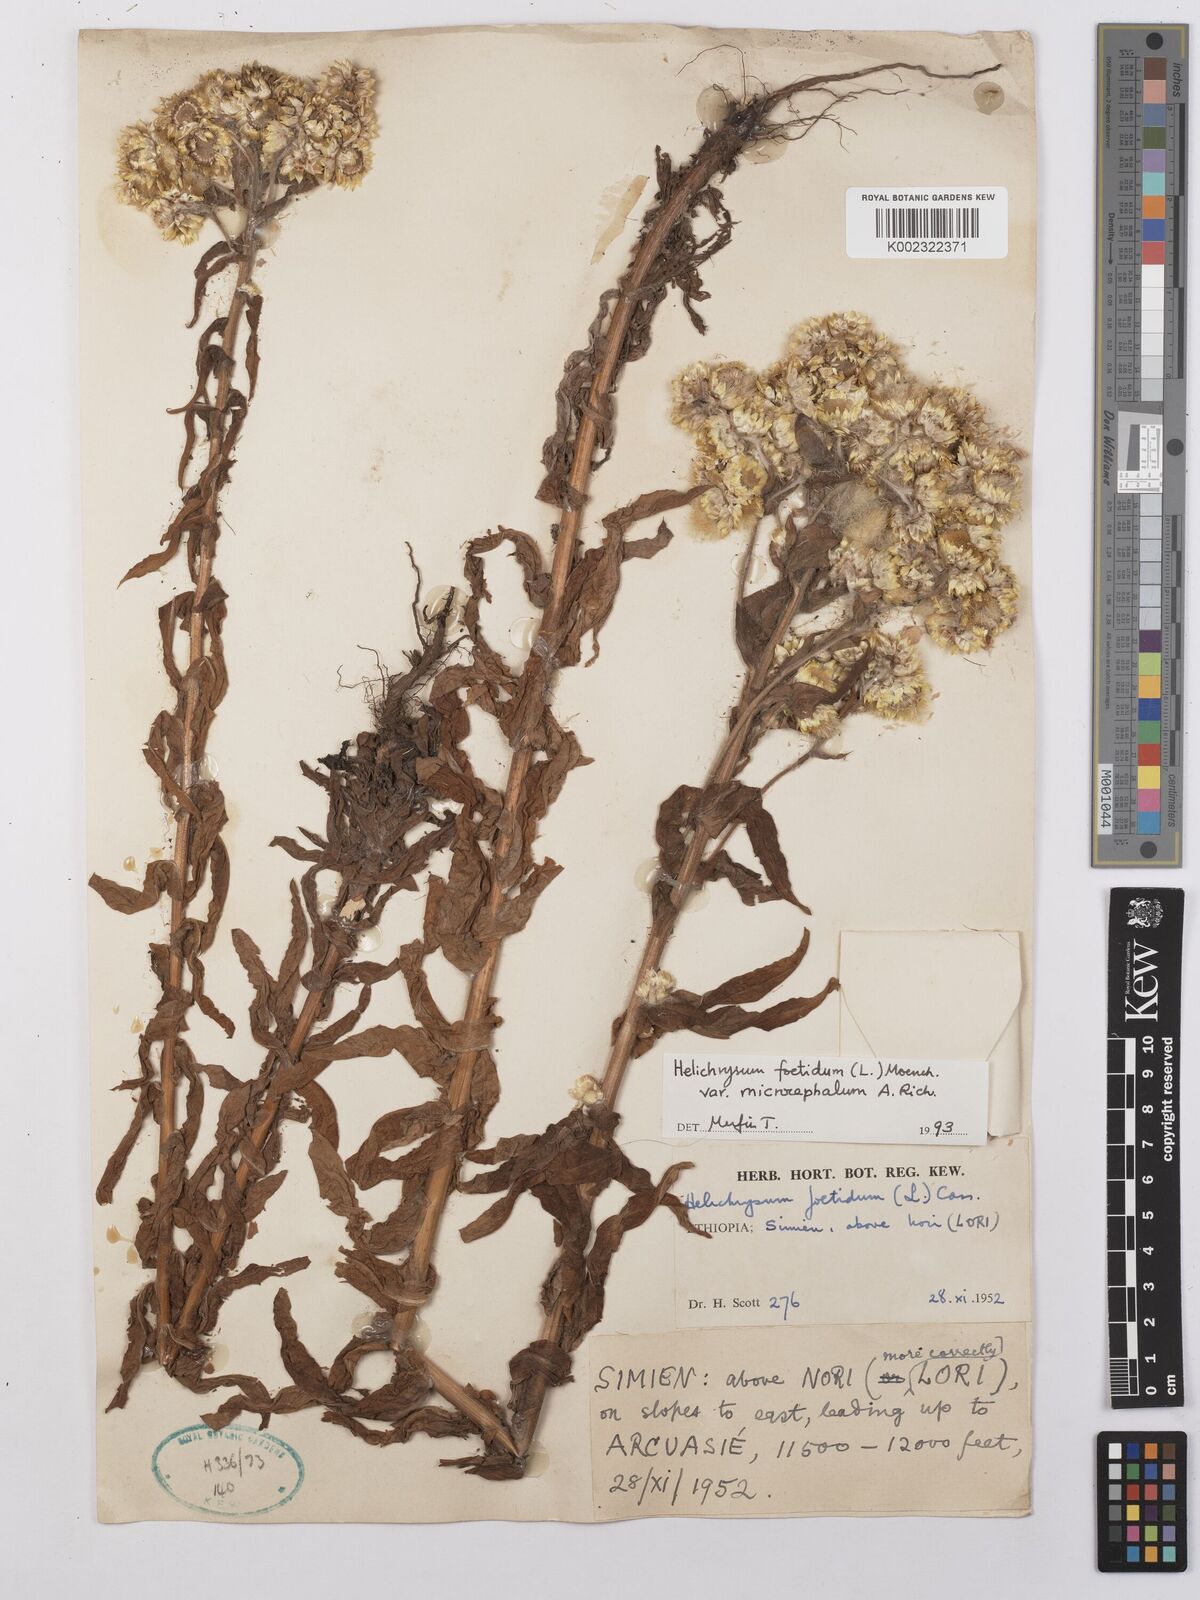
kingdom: Plantae
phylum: Tracheophyta
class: Magnoliopsida
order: Asterales
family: Asteraceae
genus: Helichrysum
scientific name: Helichrysum foetidum
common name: Stinking everlasting
